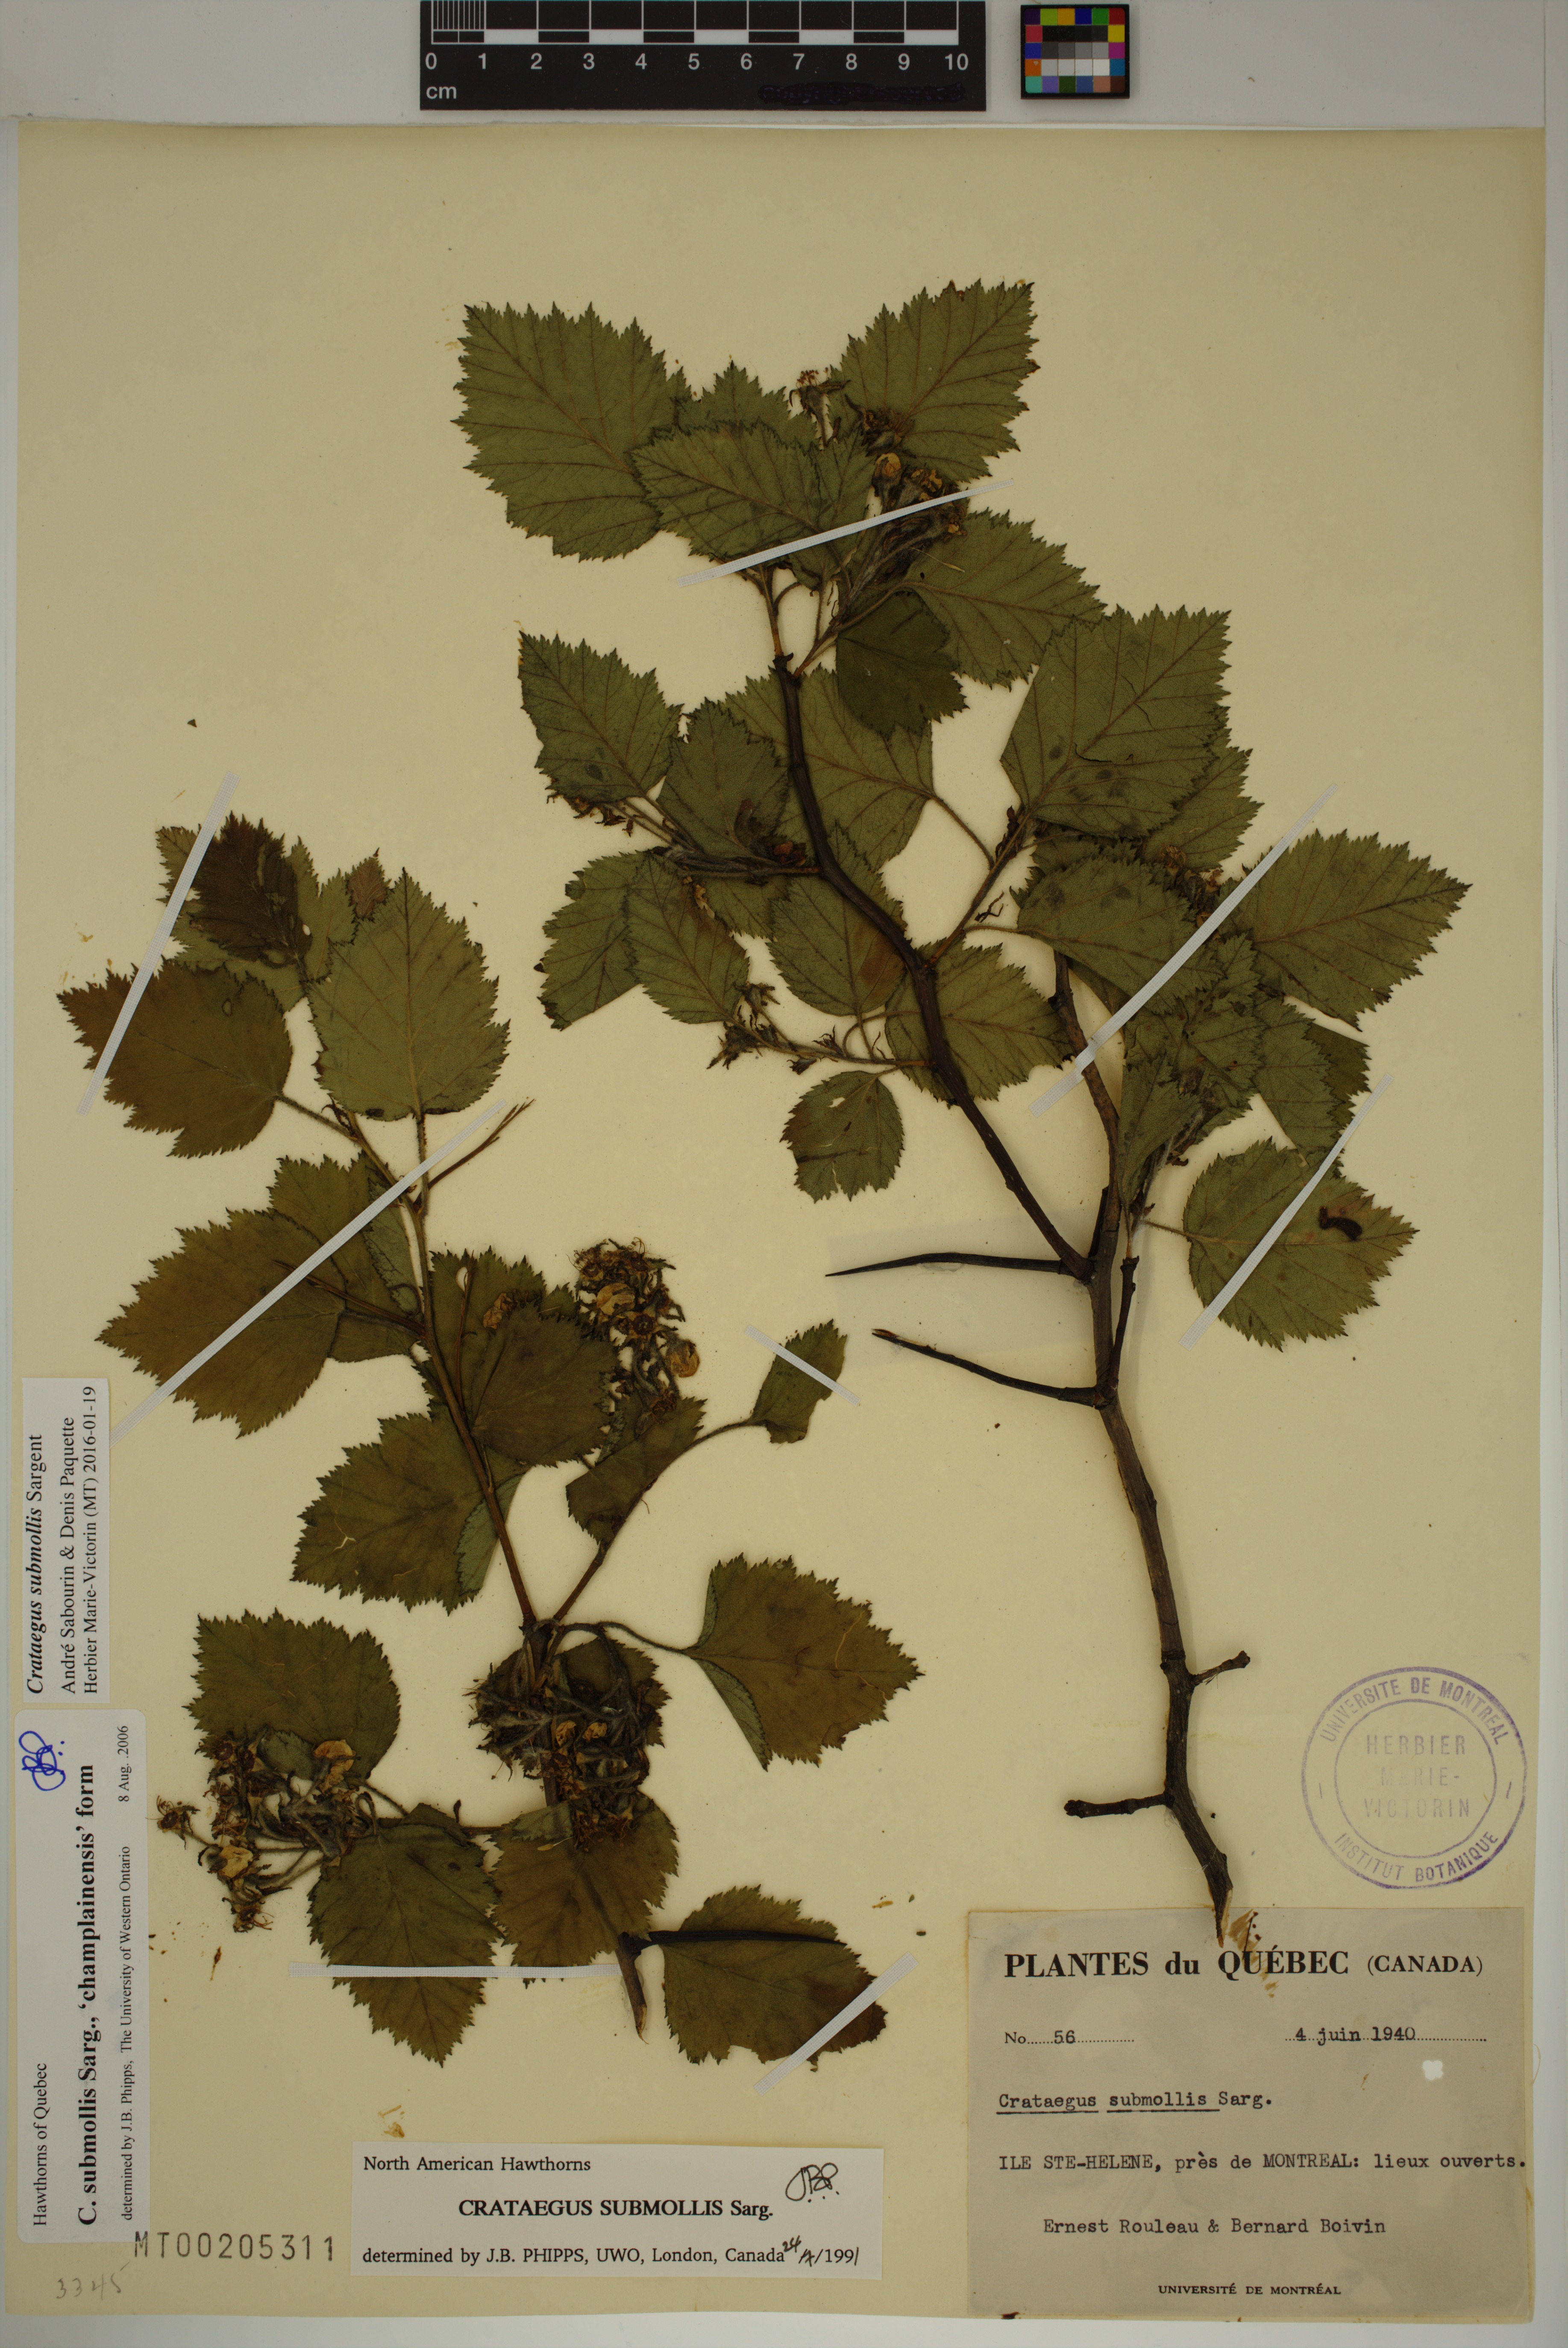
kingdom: Plantae
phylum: Tracheophyta
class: Magnoliopsida
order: Rosales
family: Rosaceae
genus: Crataegus
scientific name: Crataegus submollis
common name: Hairy cockspurthorn
